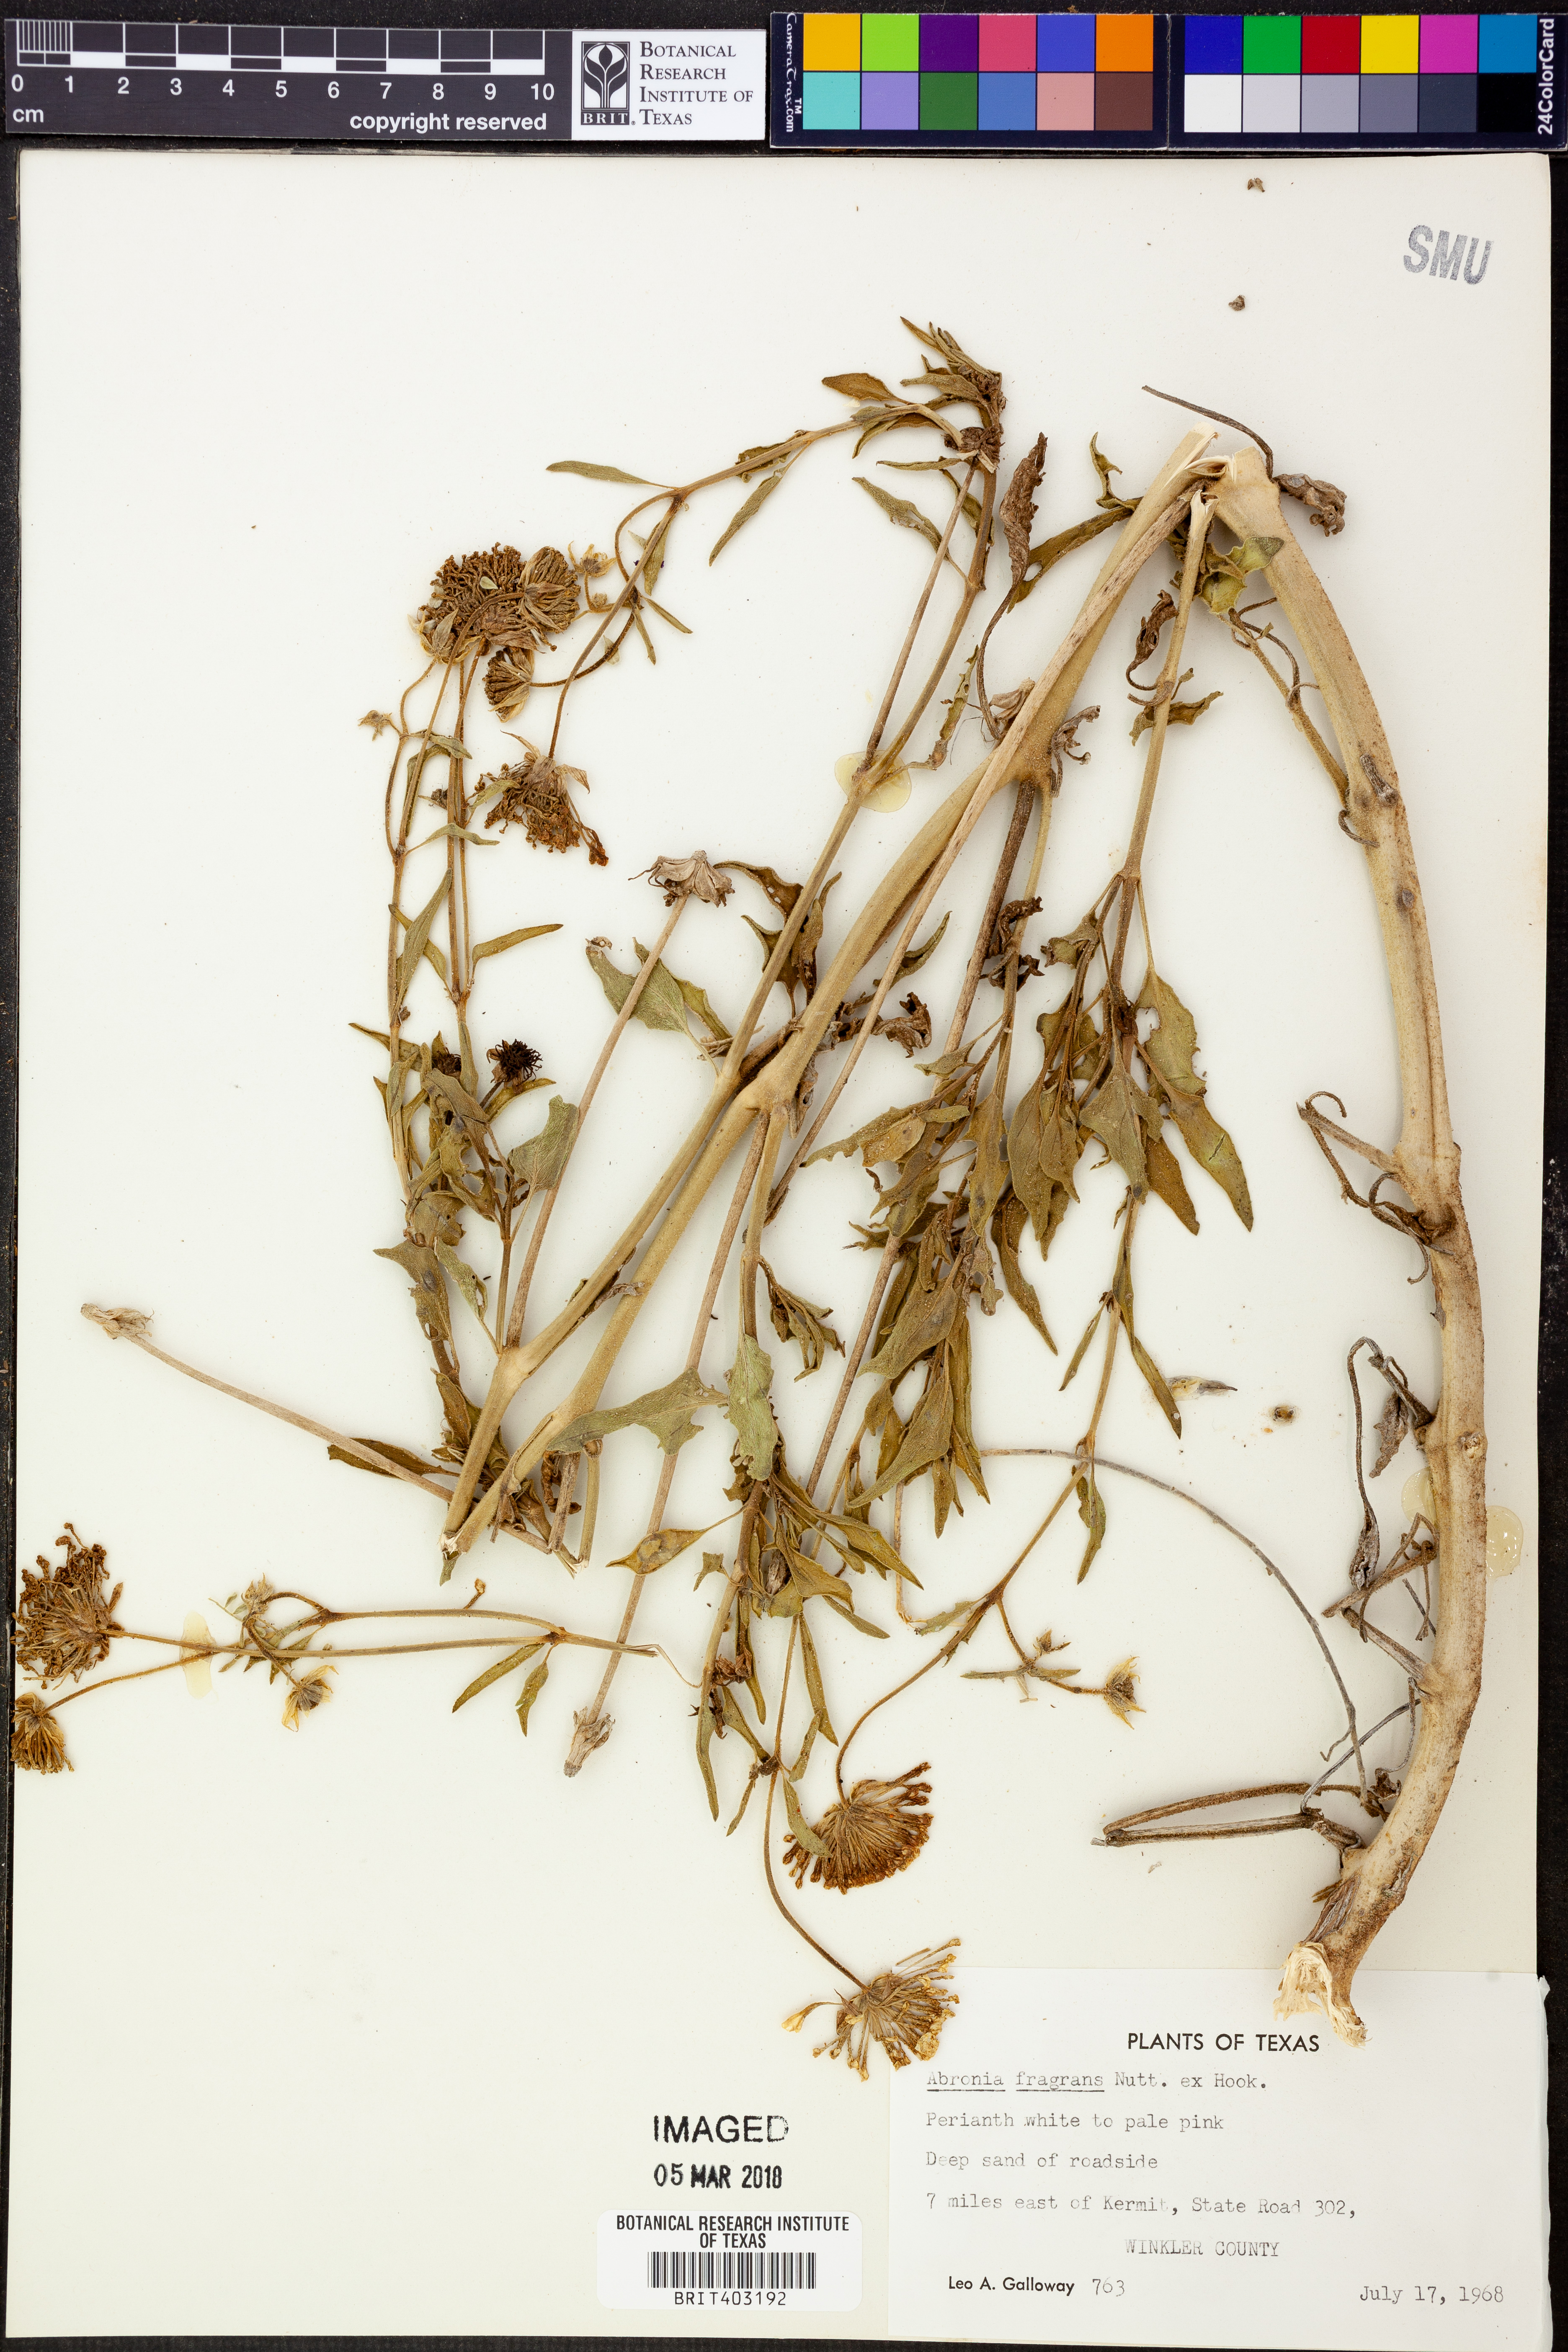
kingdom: Plantae
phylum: Tracheophyta
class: Magnoliopsida
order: Caryophyllales
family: Nyctaginaceae
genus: Abronia
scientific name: Abronia fragrans
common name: Fragrant sand-verbena
